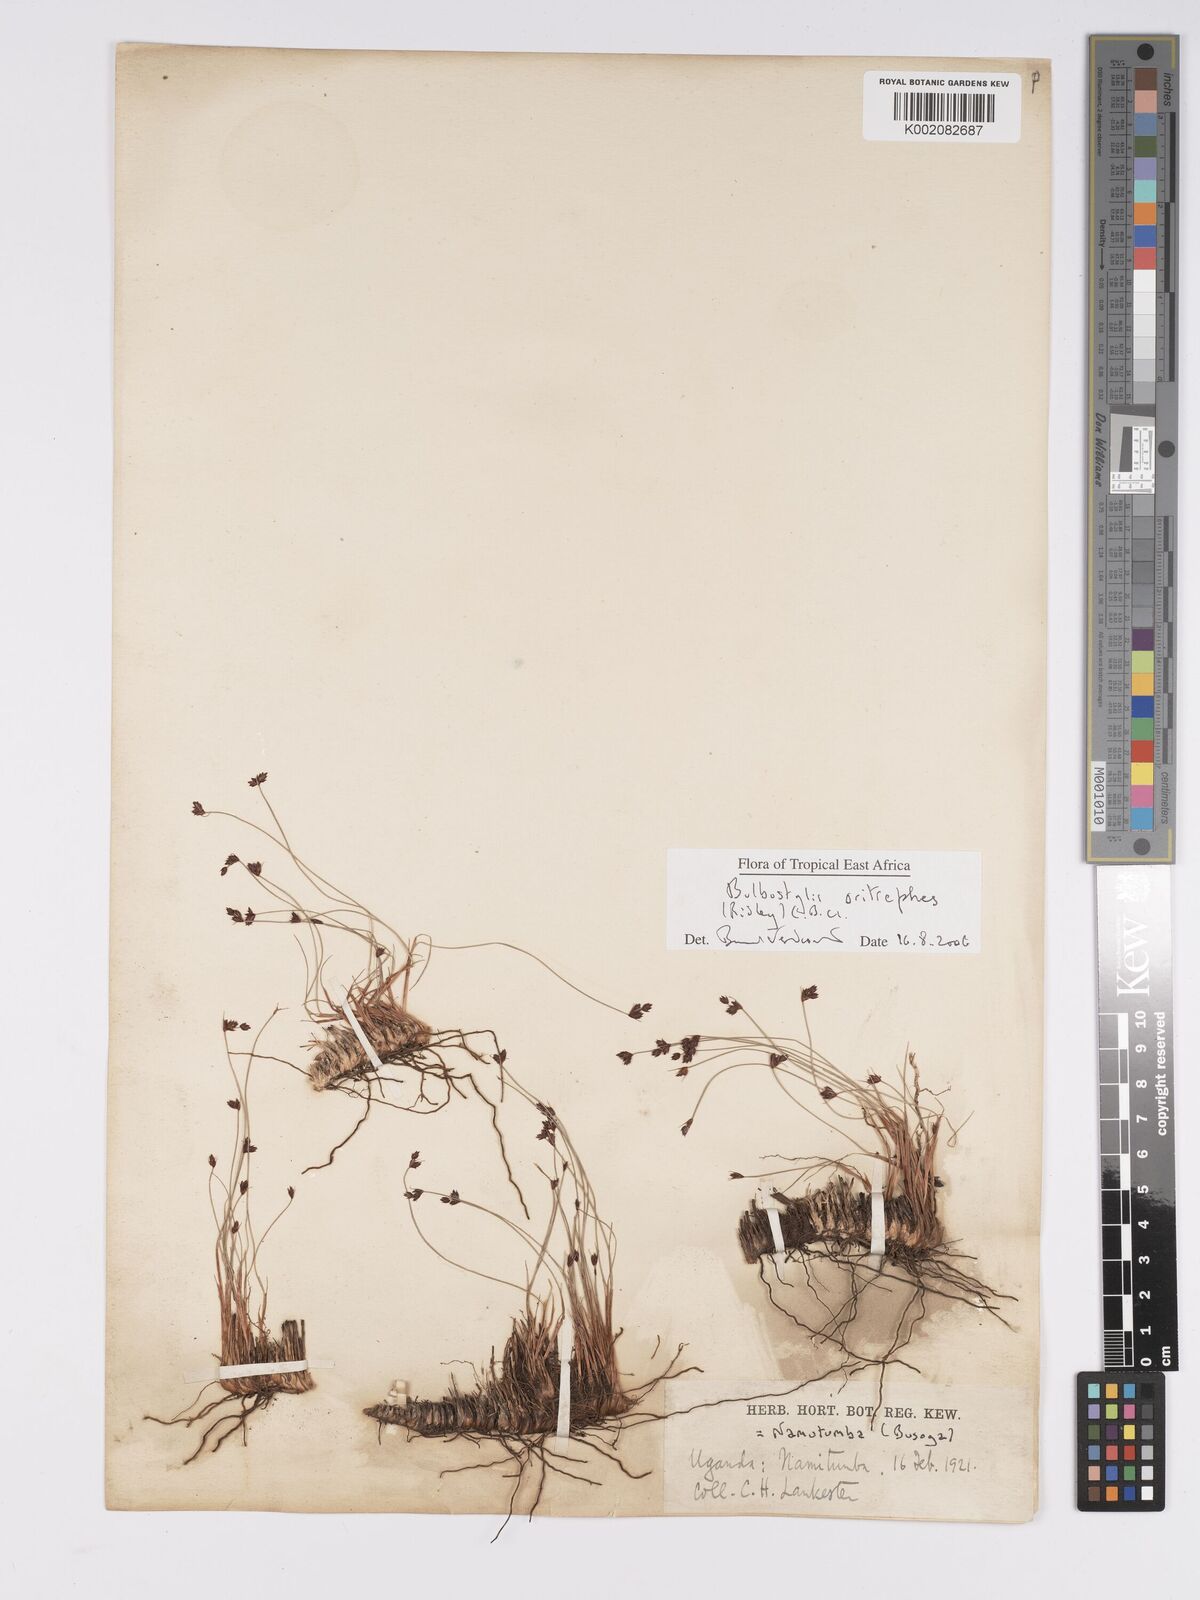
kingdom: Plantae
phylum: Tracheophyta
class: Liliopsida
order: Poales
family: Cyperaceae
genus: Bulbostylis
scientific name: Bulbostylis oritrephes
